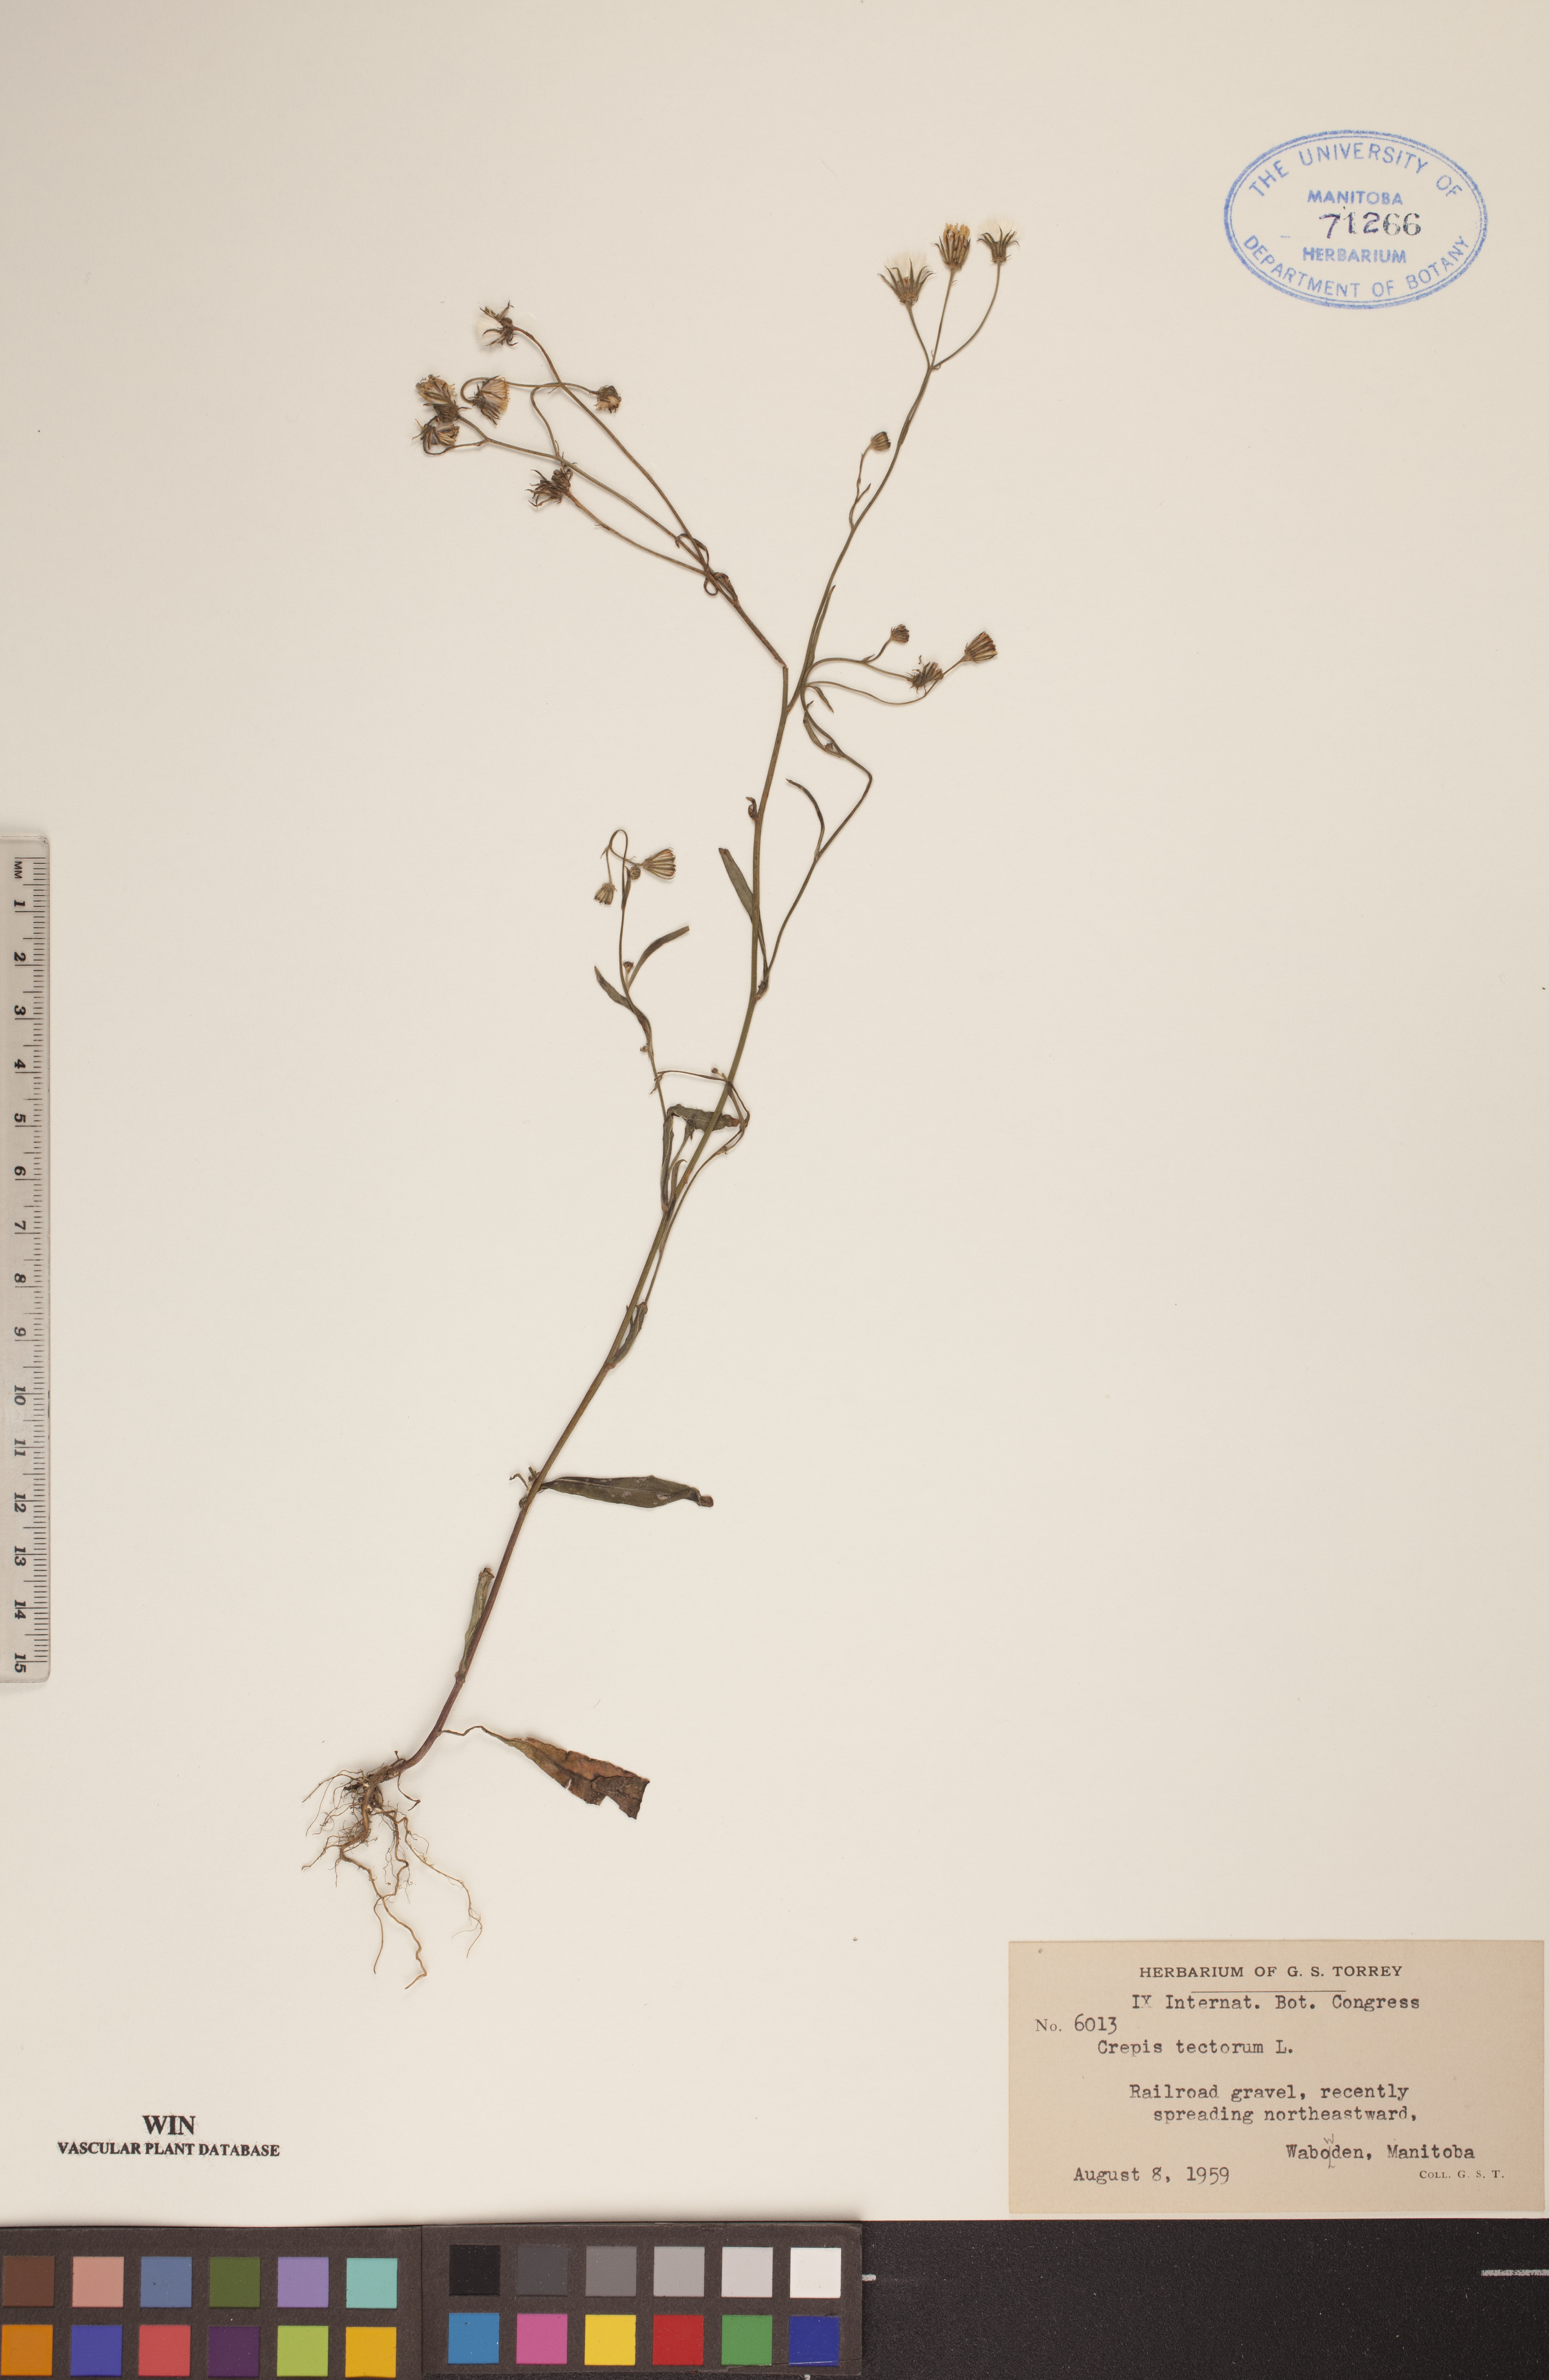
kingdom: Plantae
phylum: Tracheophyta
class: Magnoliopsida
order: Asterales
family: Asteraceae
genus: Crepis
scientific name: Crepis tectorum
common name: Narrow-leaved hawk's-beard
